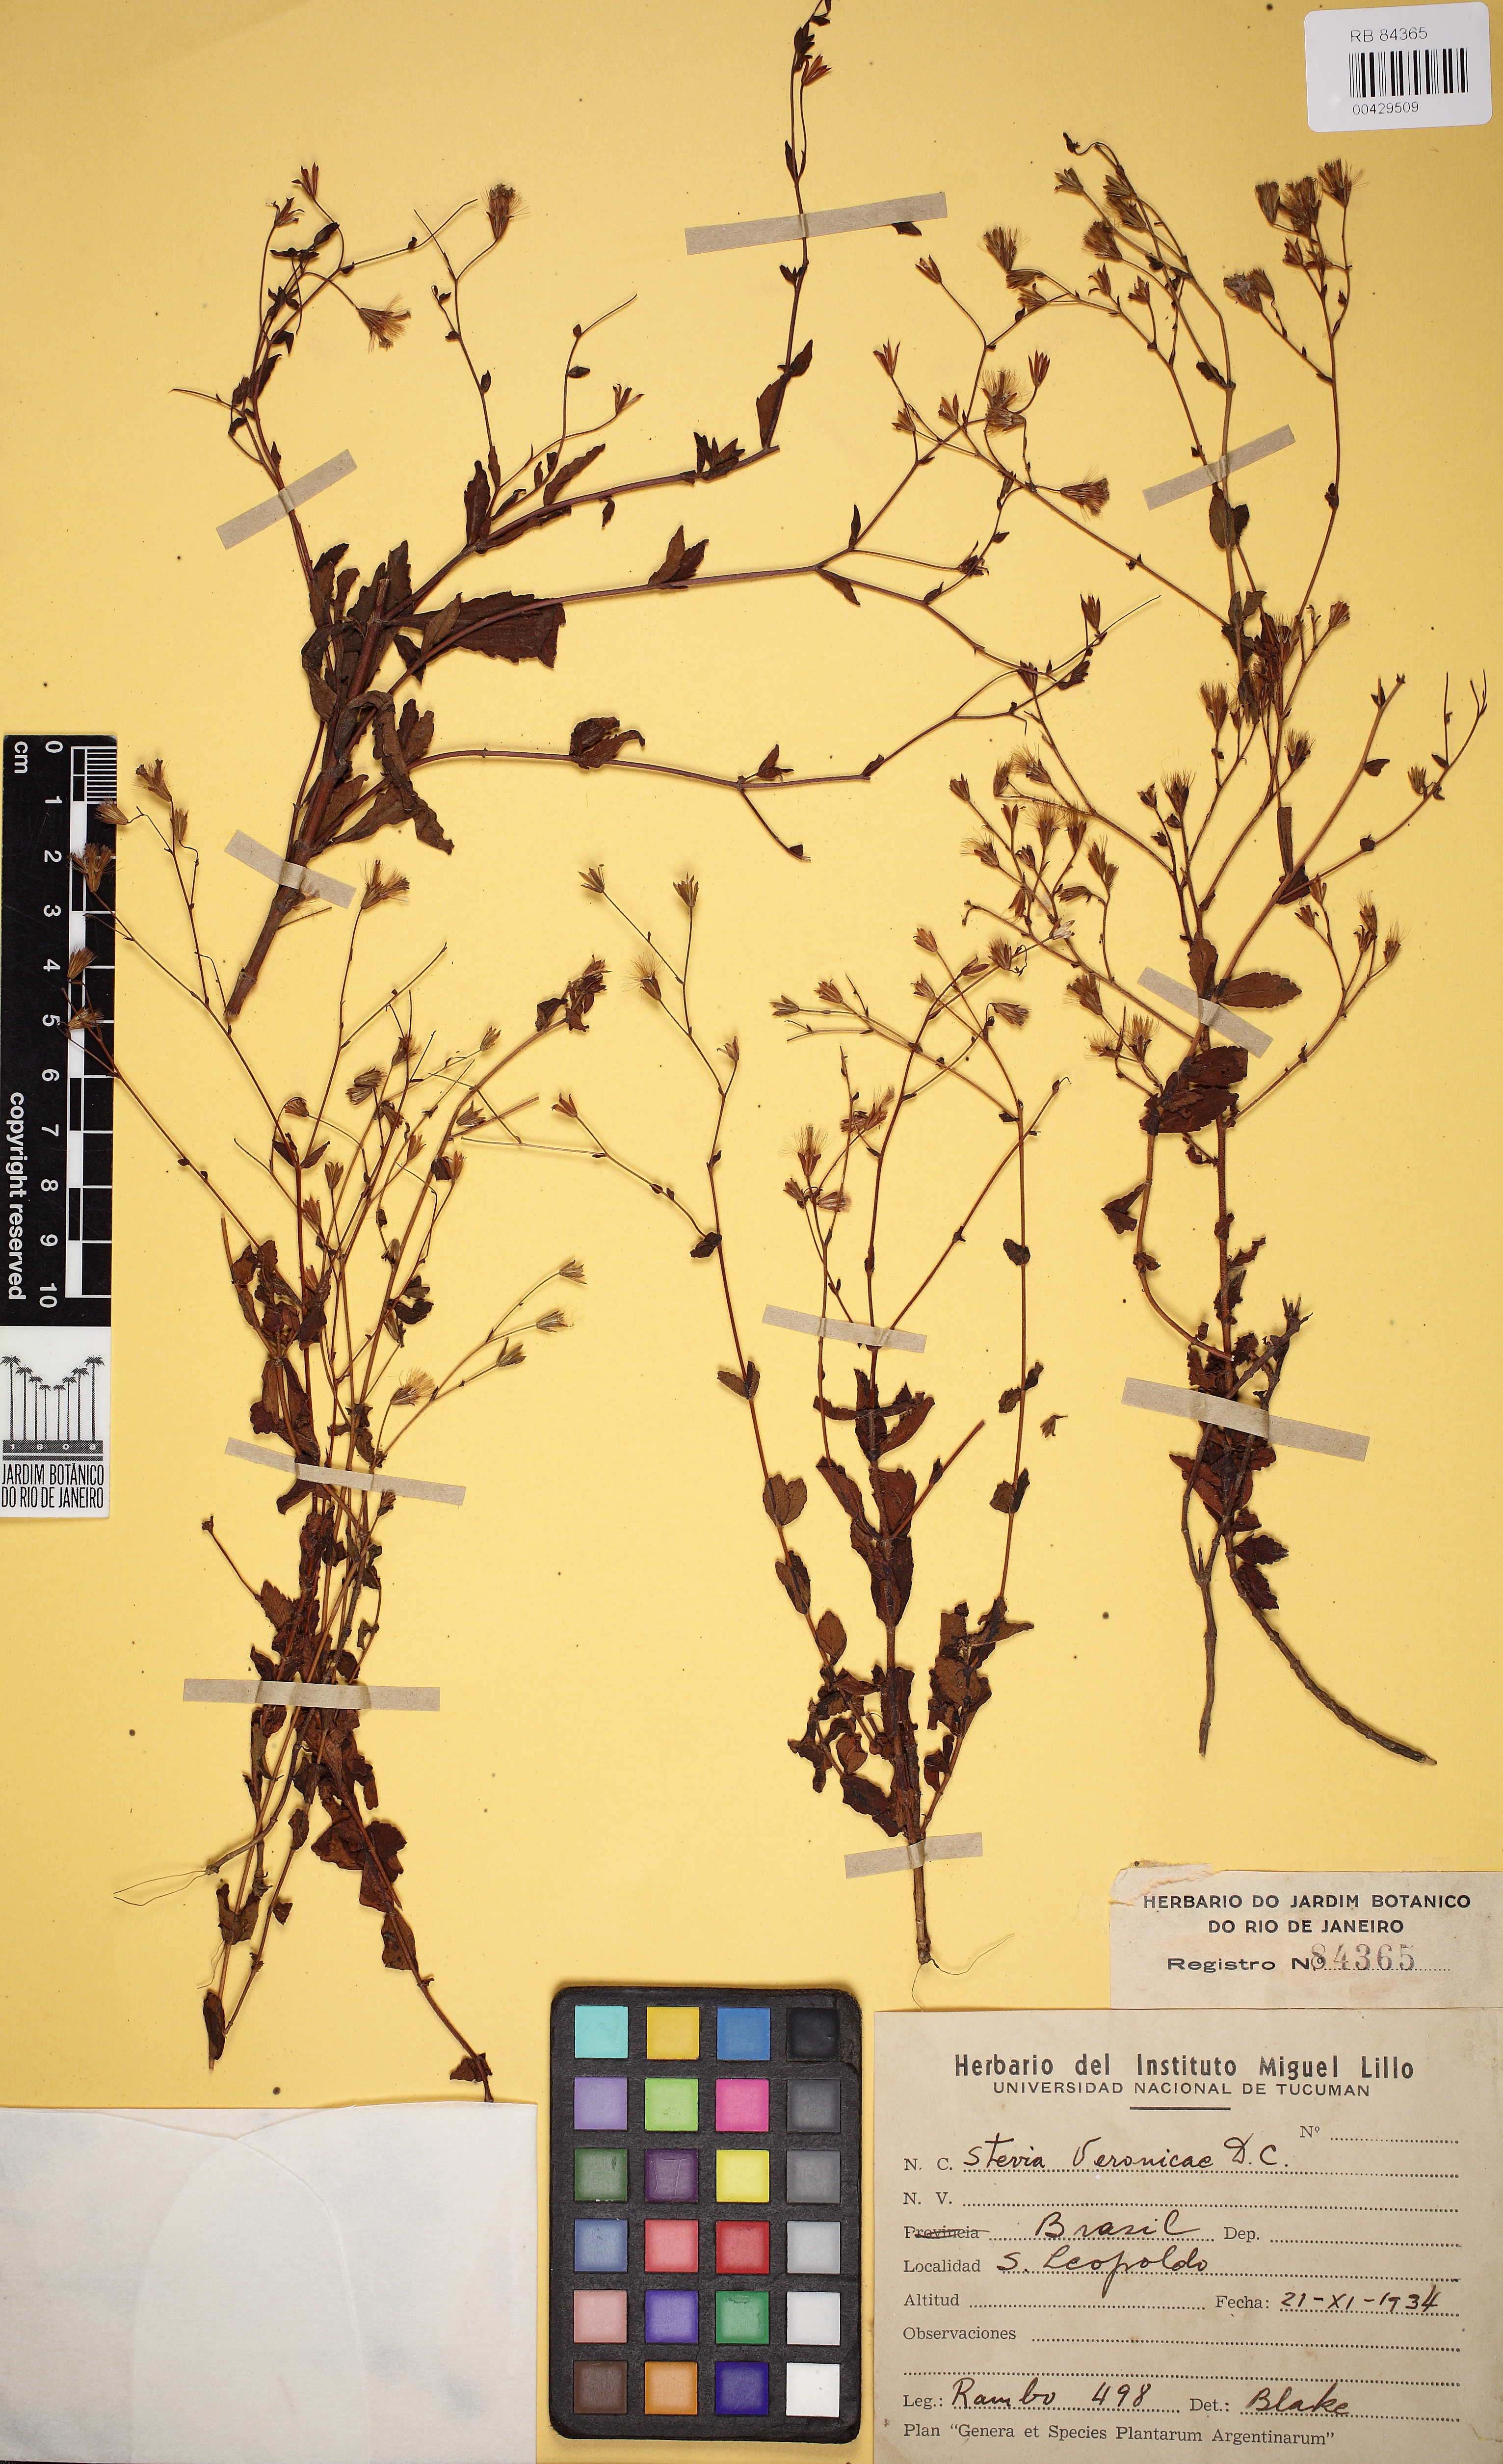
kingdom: Plantae
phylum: Tracheophyta
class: Magnoliopsida
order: Asterales
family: Asteraceae
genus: Stevia
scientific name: Stevia veronicae
